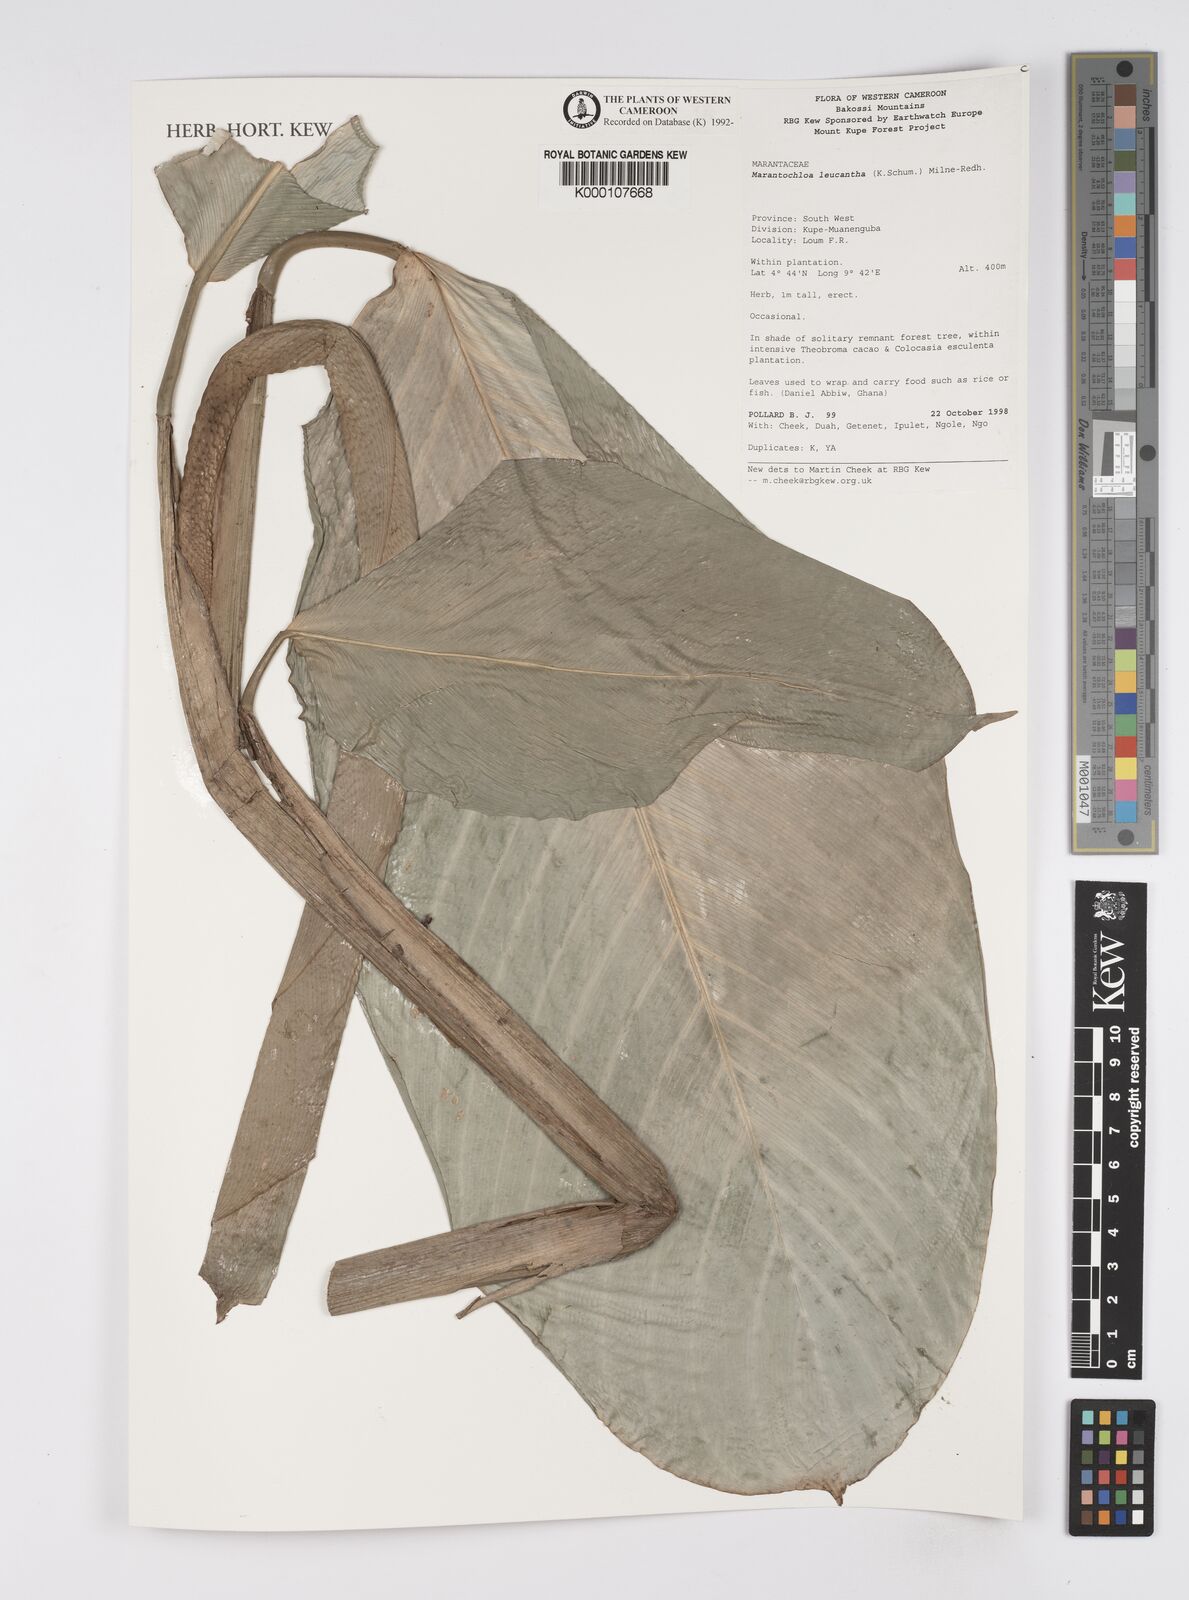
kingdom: Plantae
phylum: Tracheophyta
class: Liliopsida
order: Zingiberales
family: Marantaceae
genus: Marantochloa
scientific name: Marantochloa leucantha
